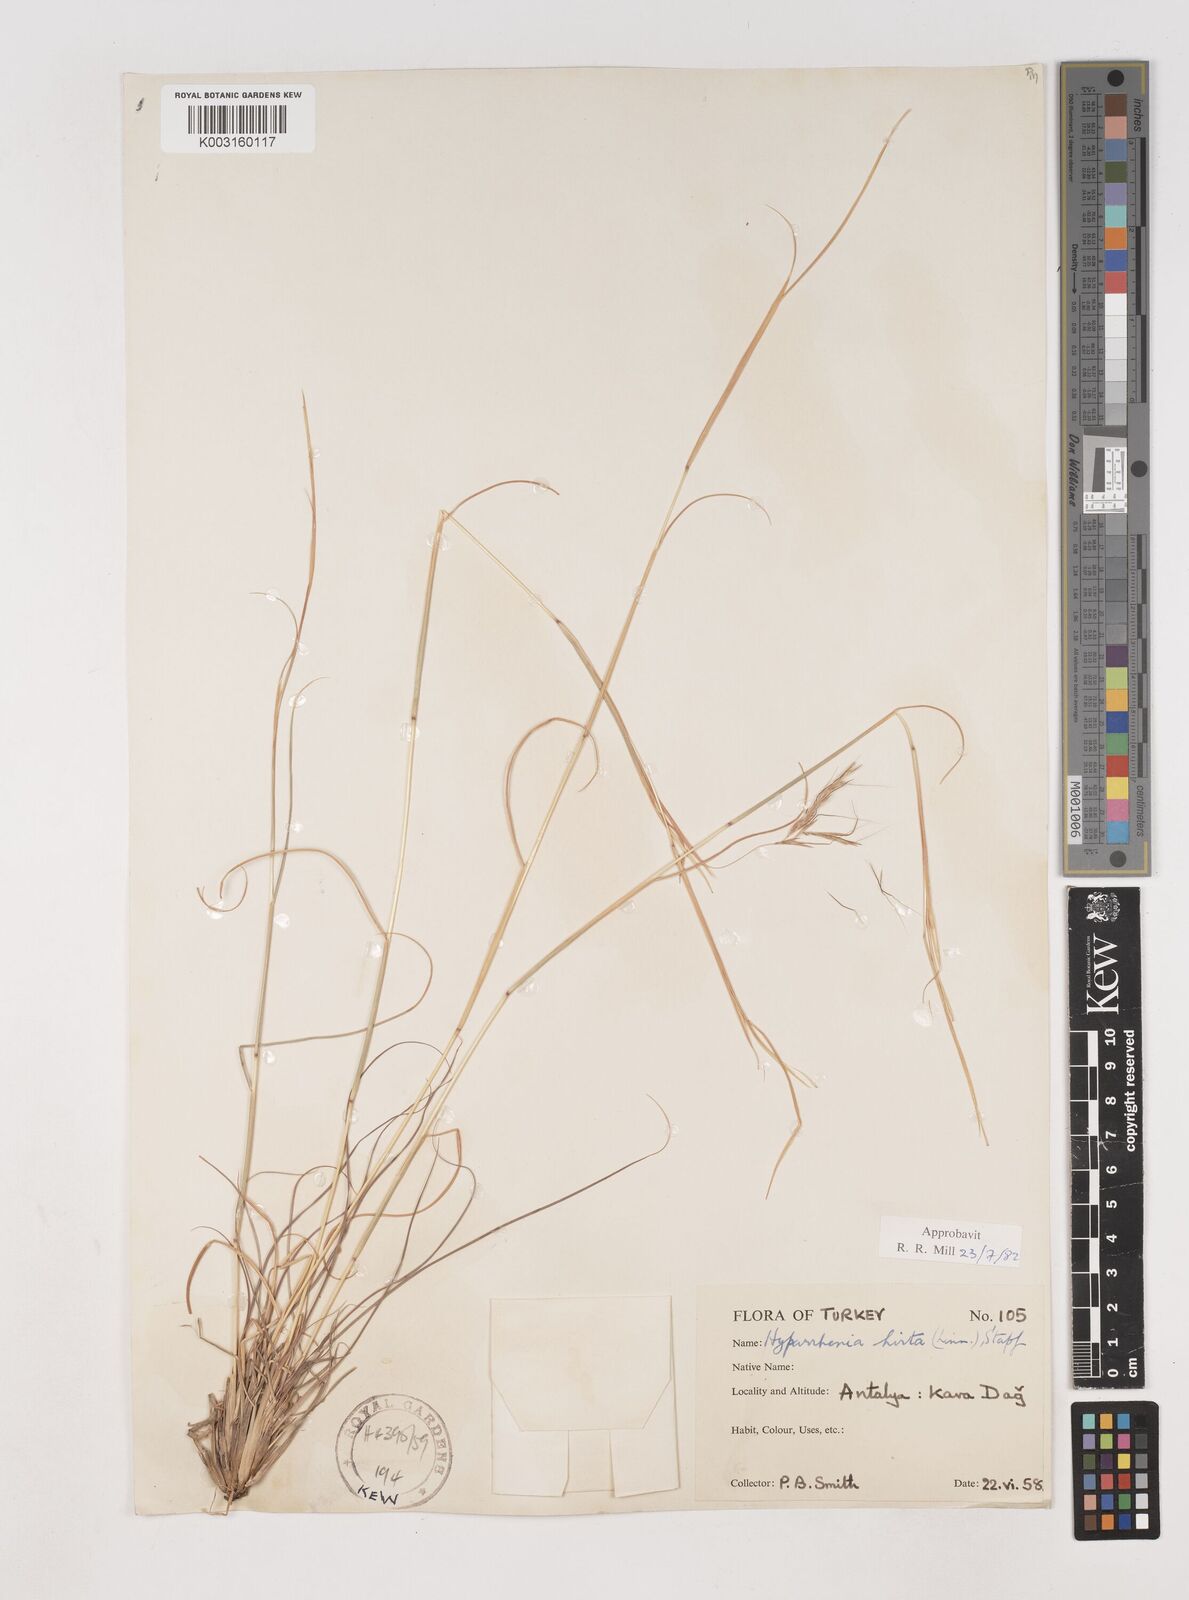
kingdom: Plantae
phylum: Tracheophyta
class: Liliopsida
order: Poales
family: Poaceae
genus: Hyparrhenia
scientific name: Hyparrhenia hirta
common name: Thatching grass
